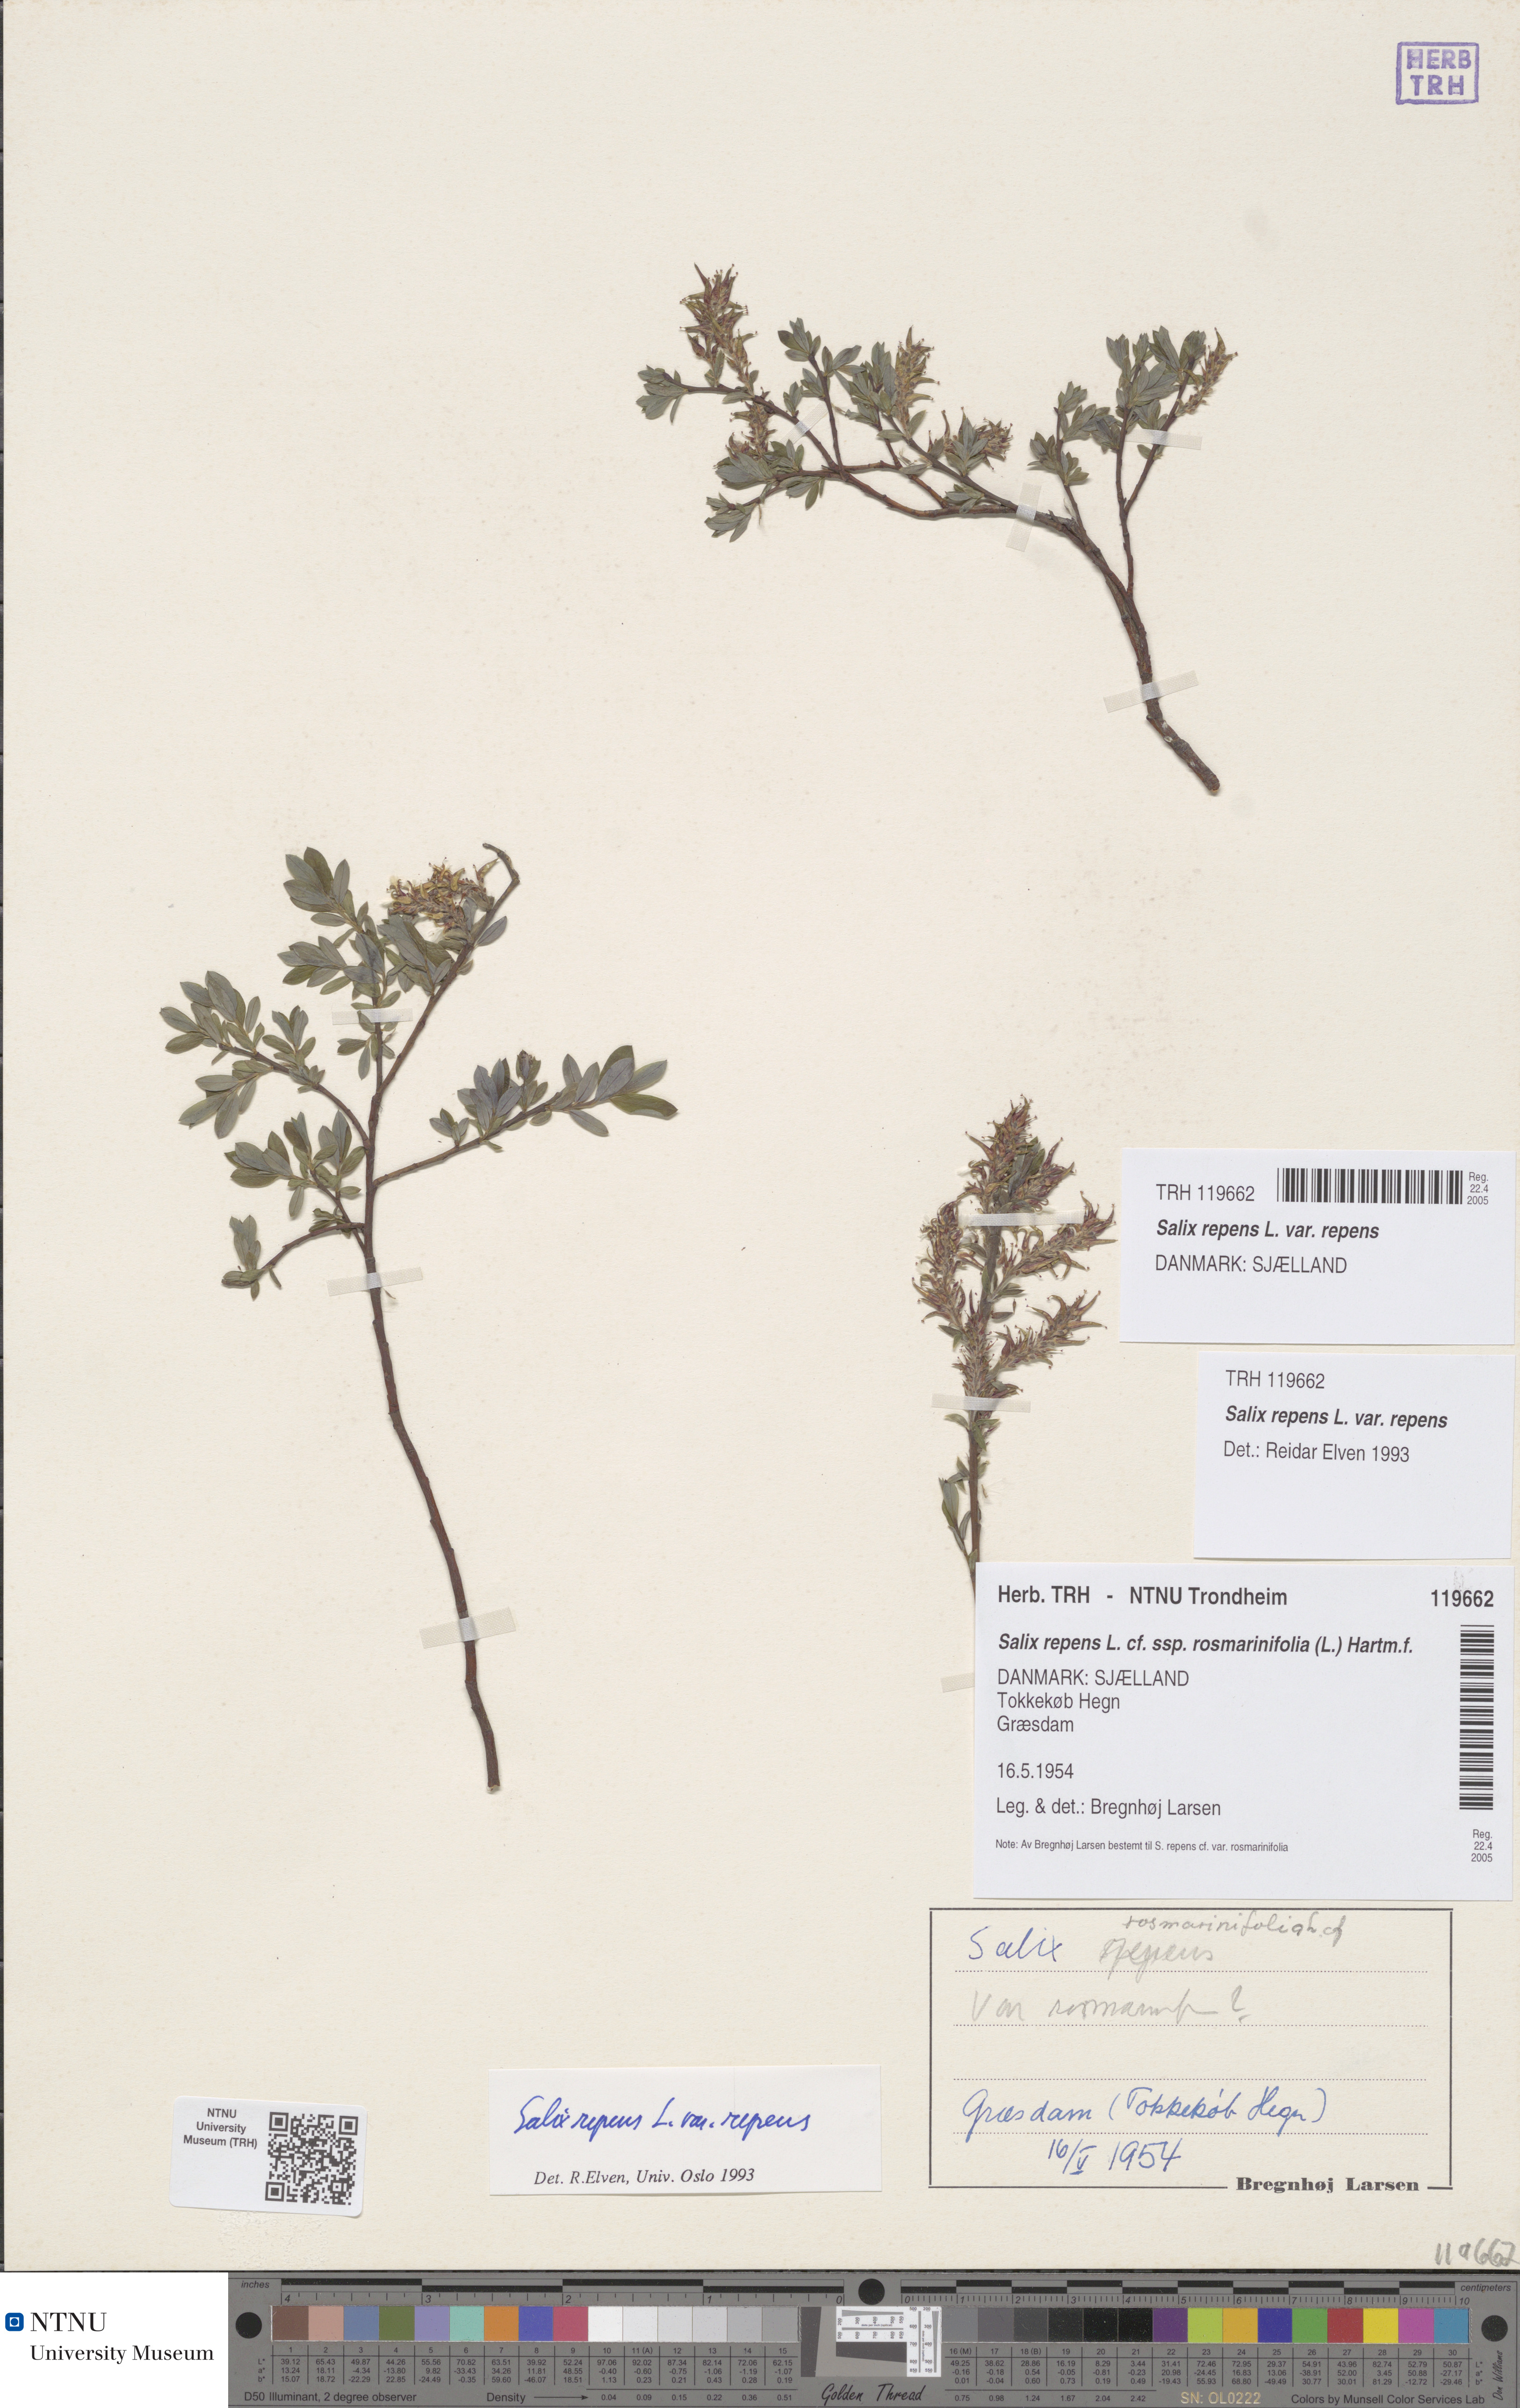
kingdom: Plantae
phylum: Tracheophyta
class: Magnoliopsida
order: Malpighiales
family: Salicaceae
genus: Salix
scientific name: Salix repens
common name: Creeping willow
